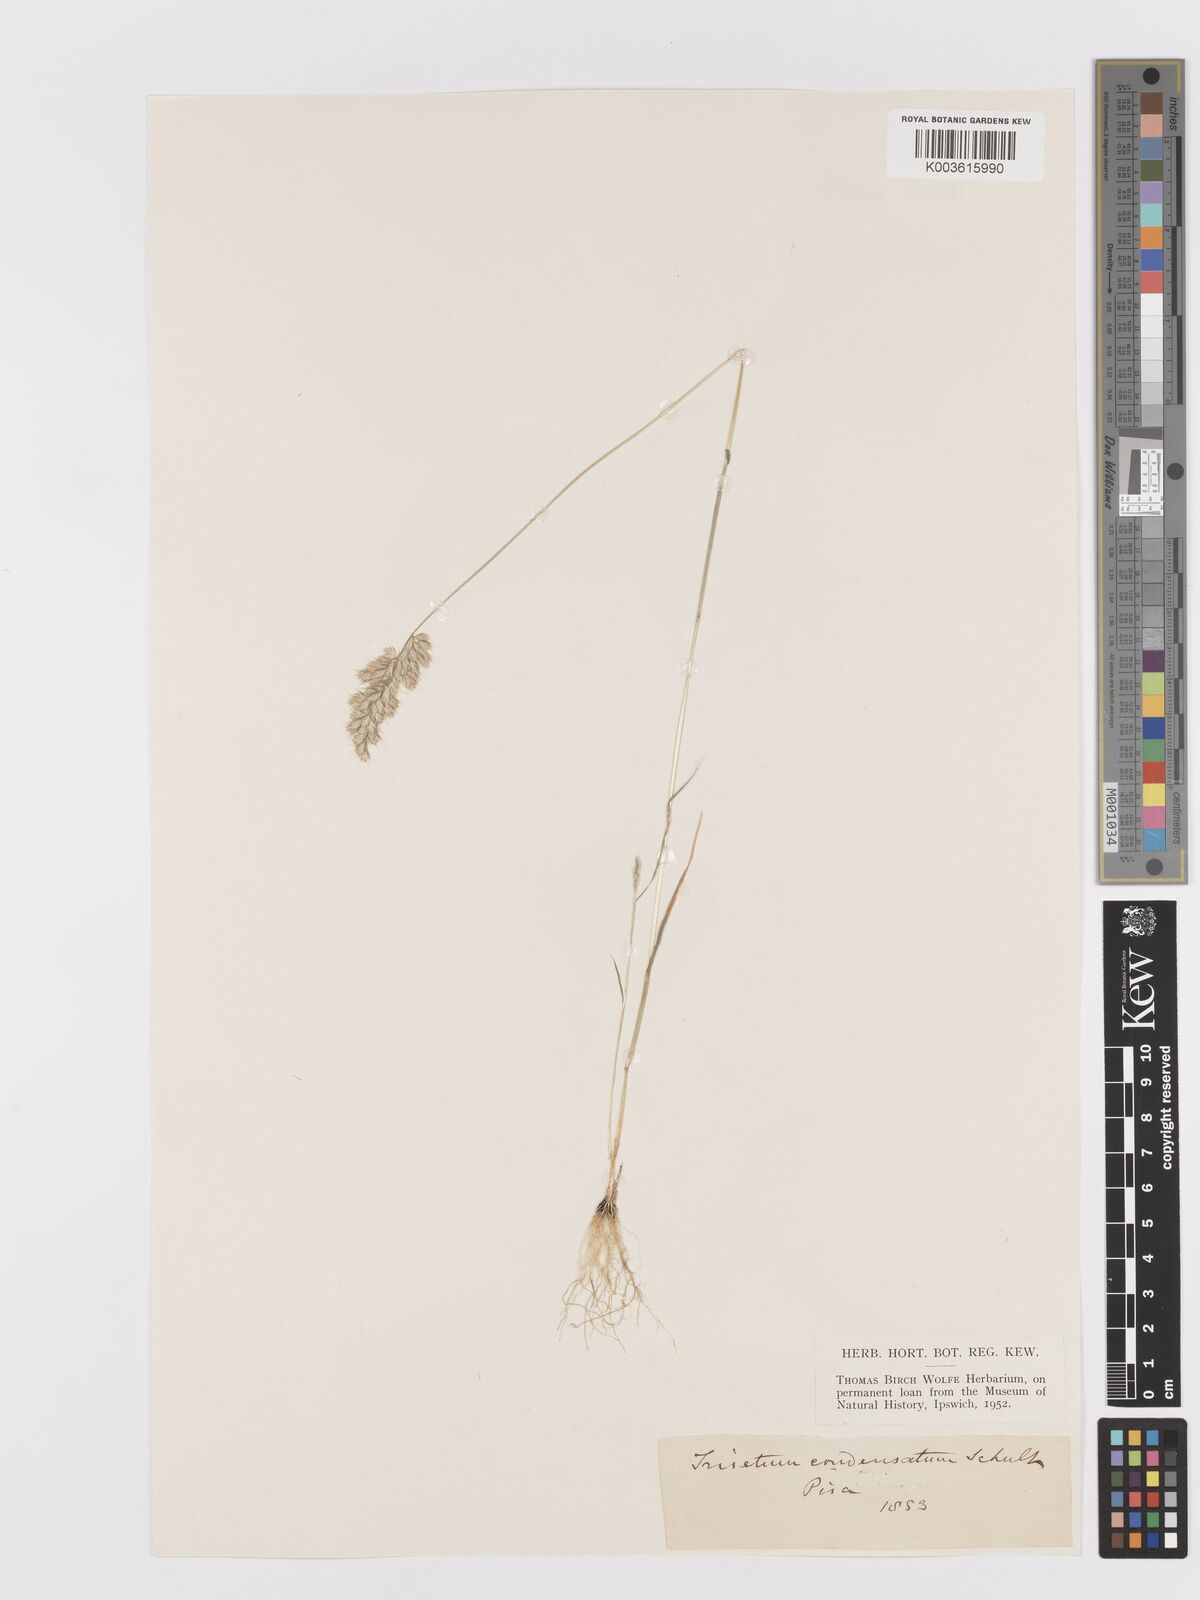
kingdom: Plantae
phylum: Tracheophyta
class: Liliopsida
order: Poales
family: Poaceae
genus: Trisetaria
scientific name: Trisetaria aurea
